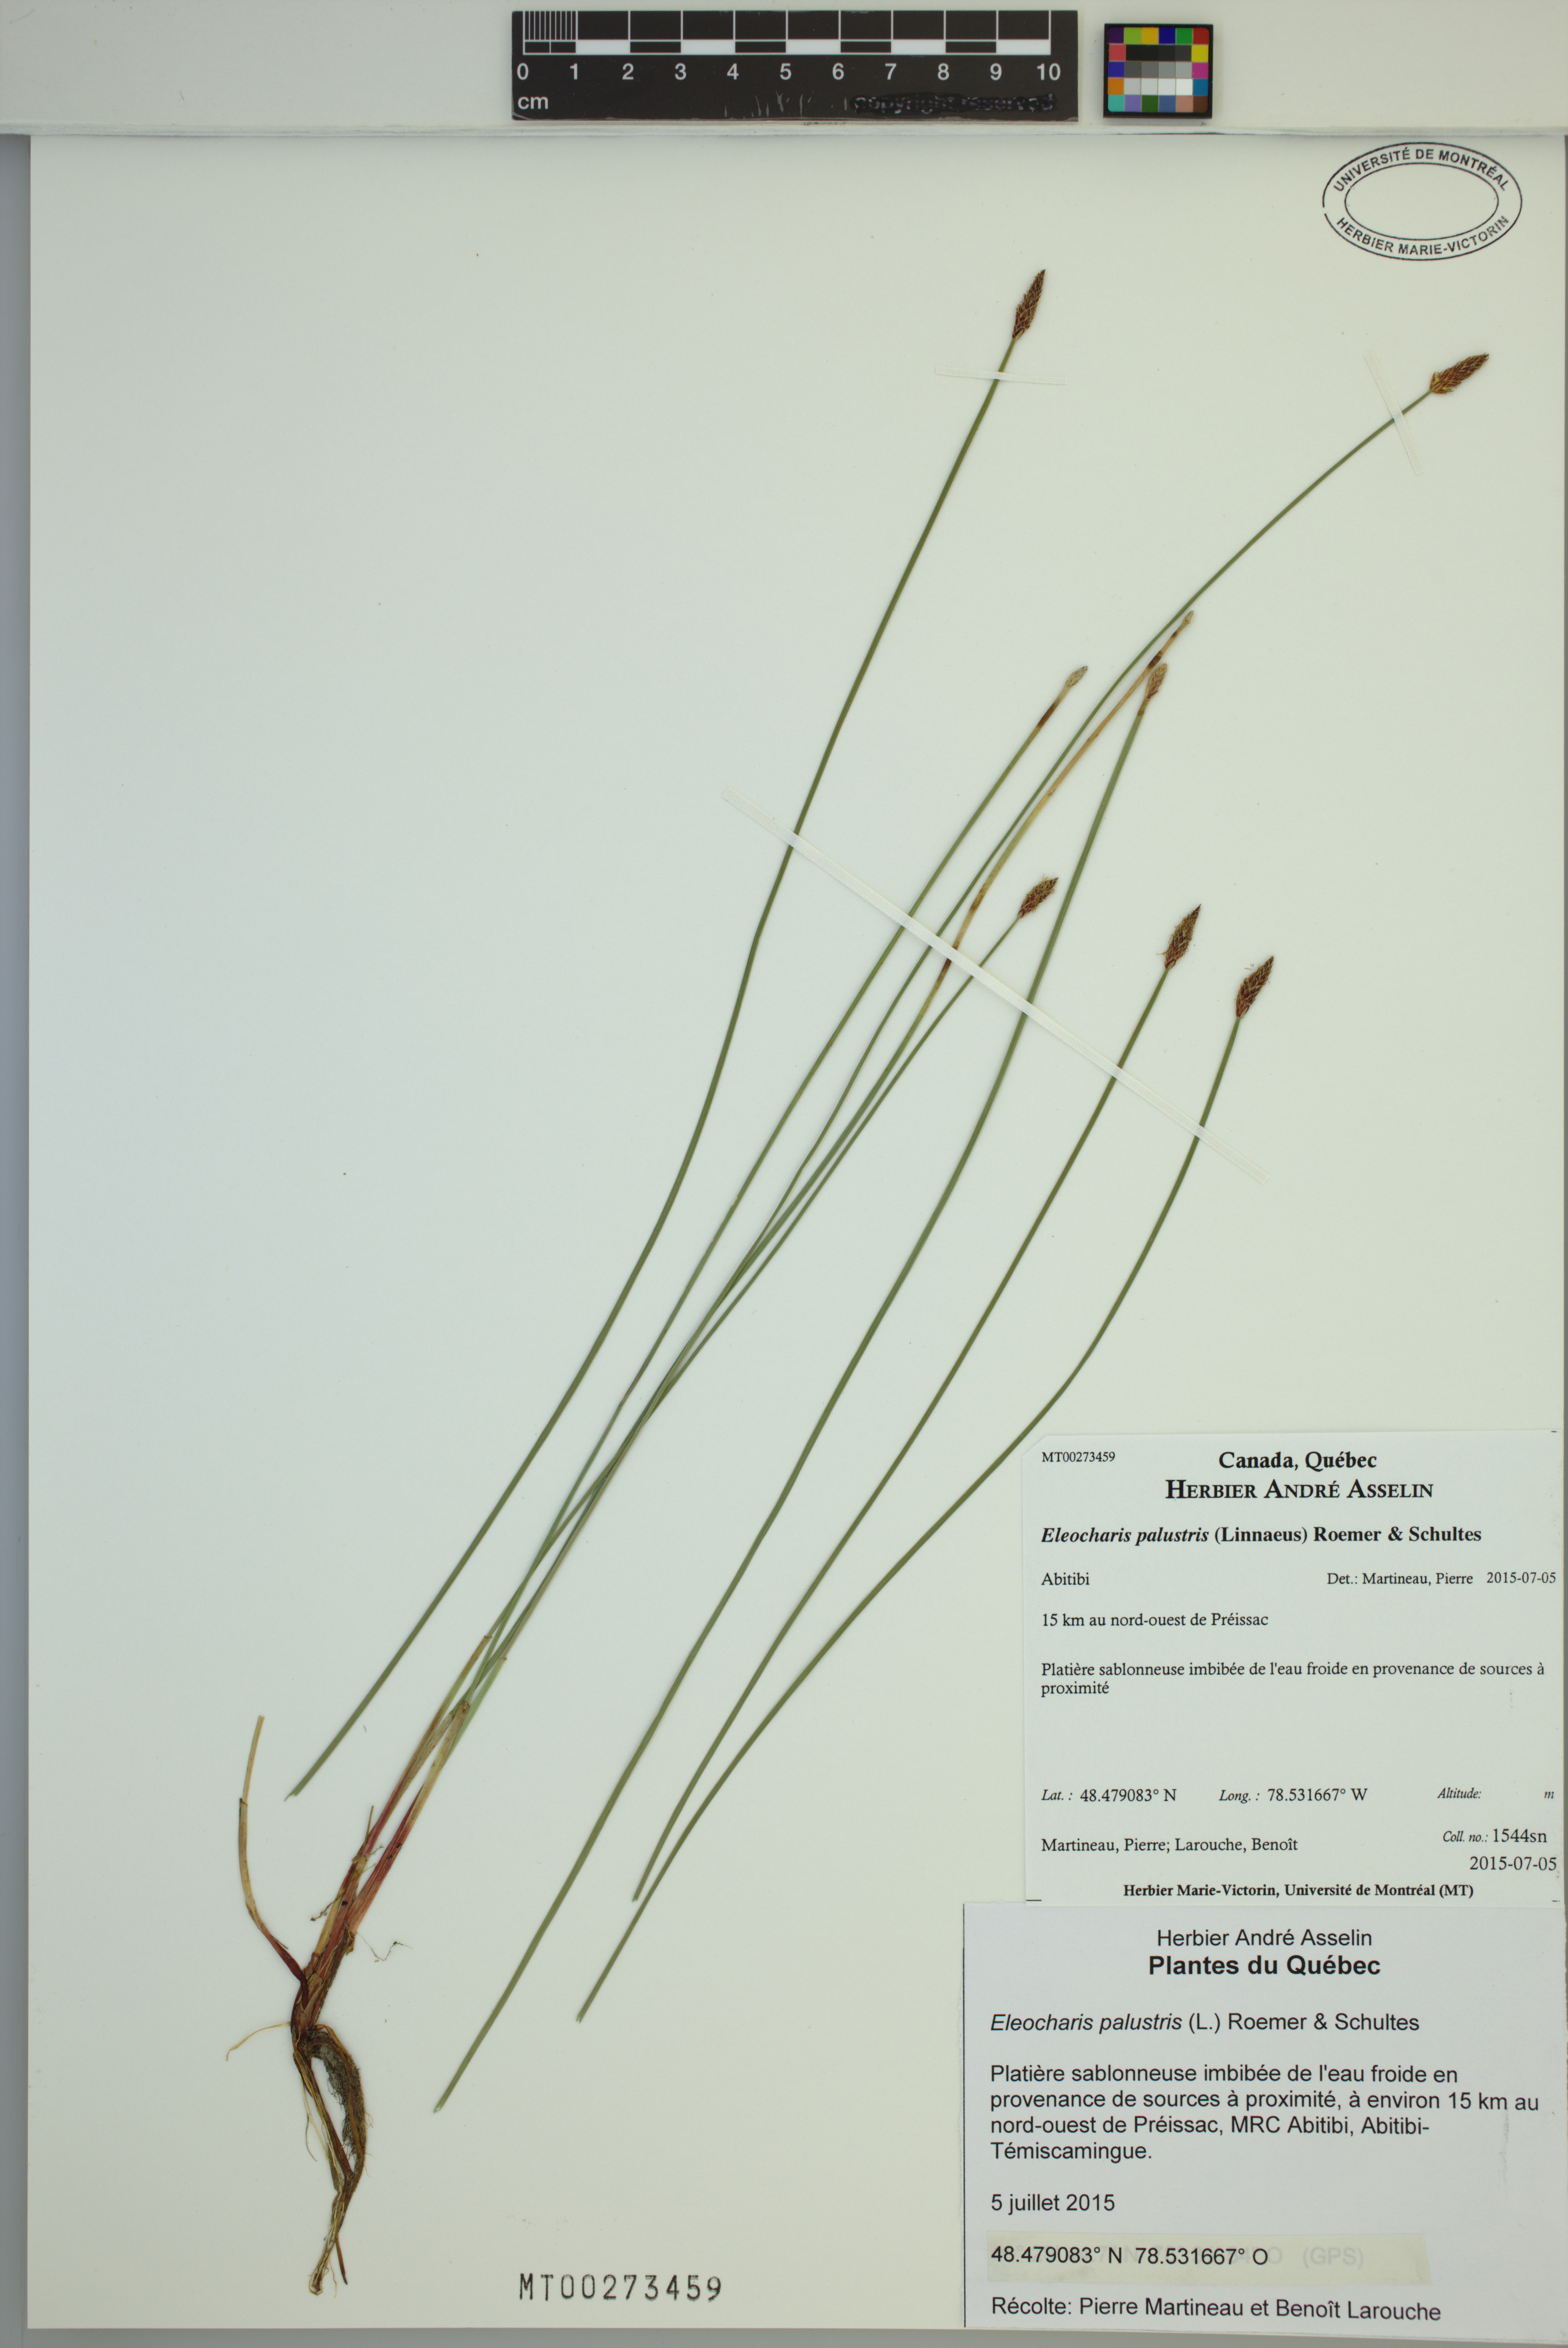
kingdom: Plantae
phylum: Tracheophyta
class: Liliopsida
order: Poales
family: Cyperaceae
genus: Eleocharis
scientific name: Eleocharis palustris
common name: Common spike-rush
